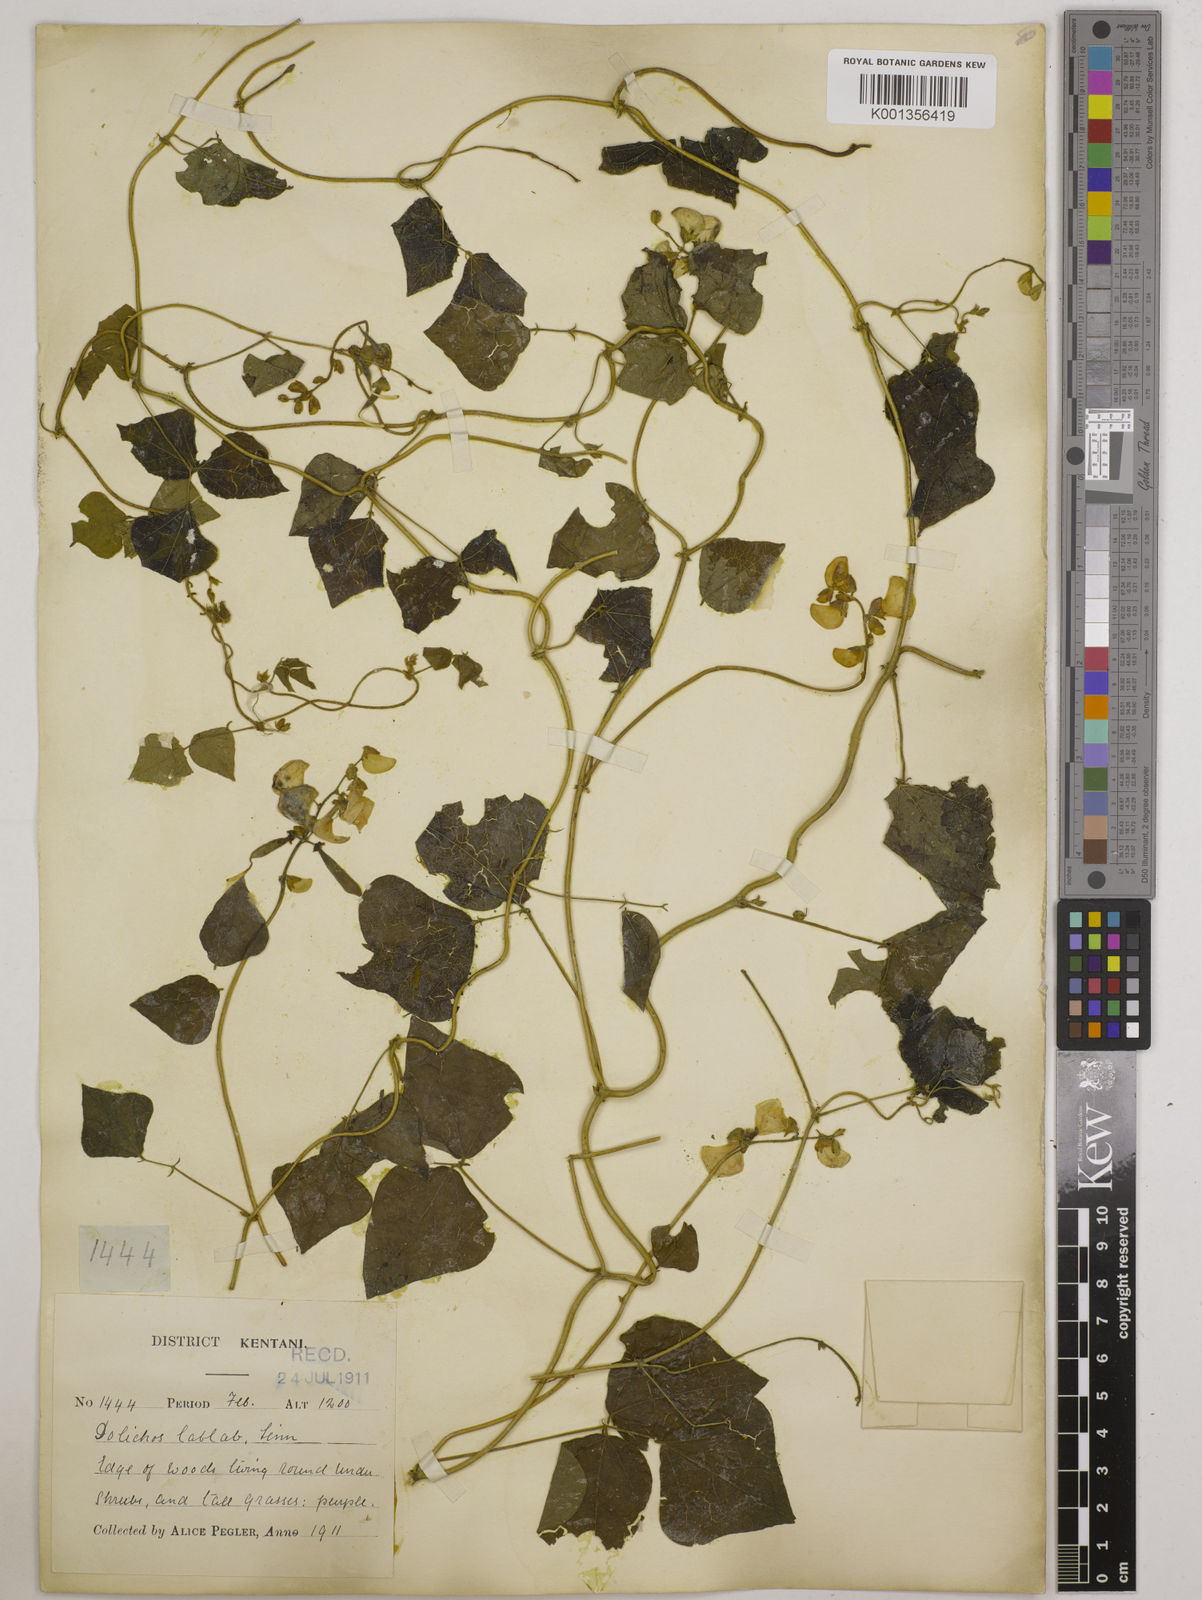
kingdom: Plantae
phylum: Tracheophyta
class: Magnoliopsida
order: Fabales
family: Fabaceae
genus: Lablab
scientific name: Lablab purpureus
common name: Lablab-bean
